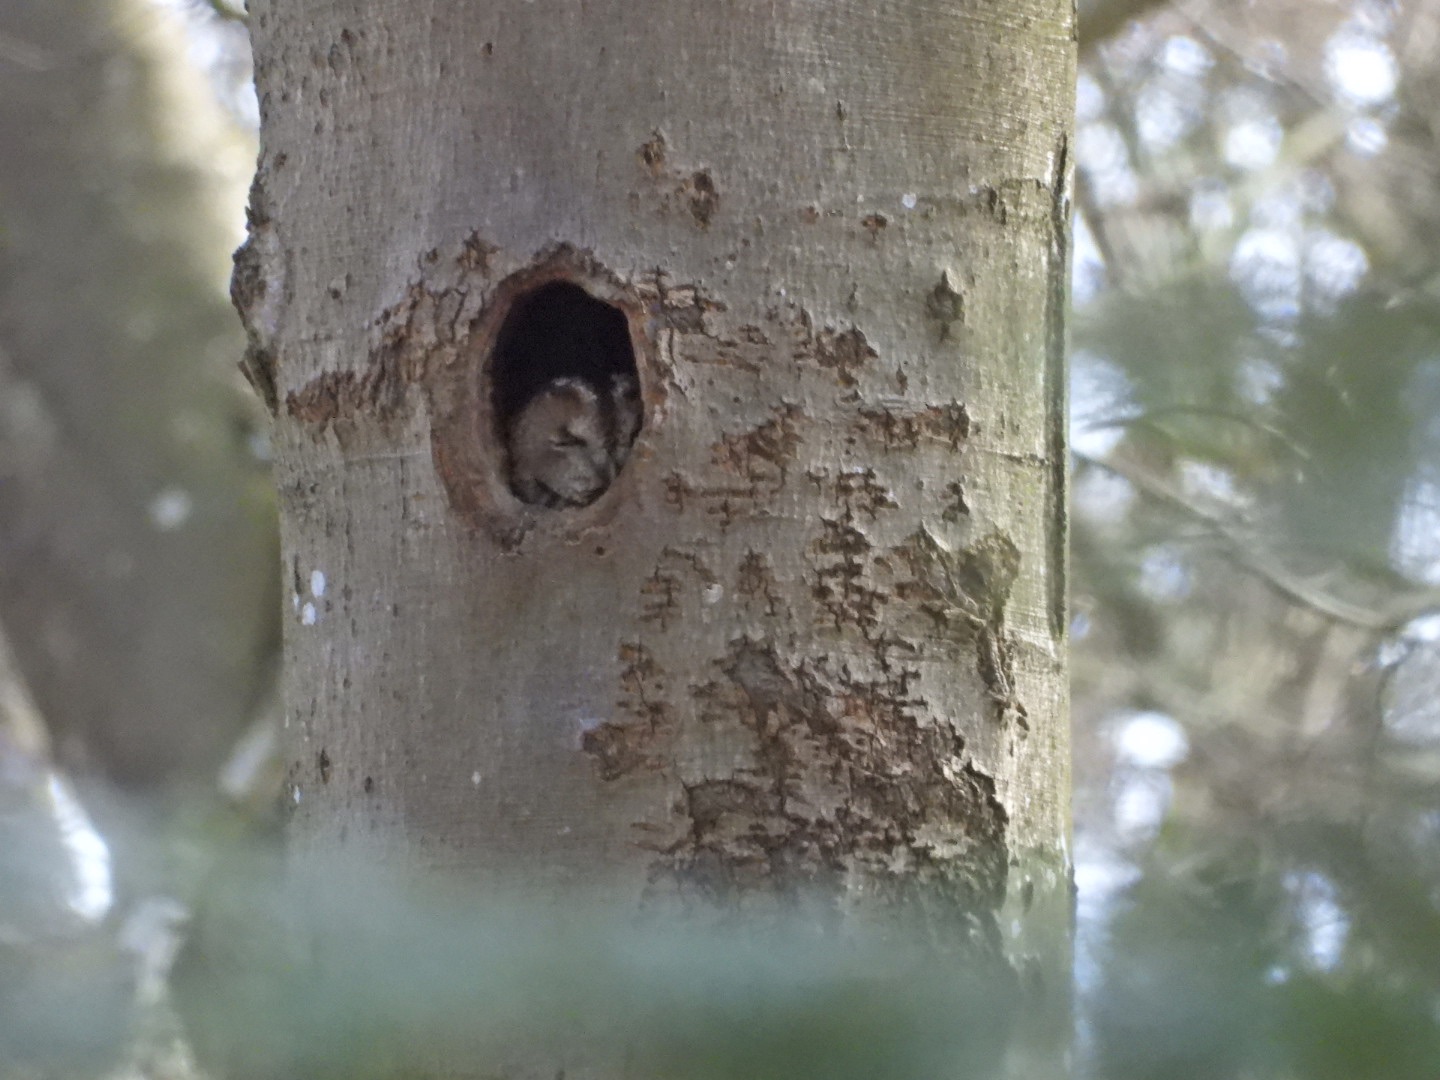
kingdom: Animalia
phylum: Chordata
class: Aves
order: Strigiformes
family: Strigidae
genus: Strix
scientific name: Strix aluco
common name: Natugle
